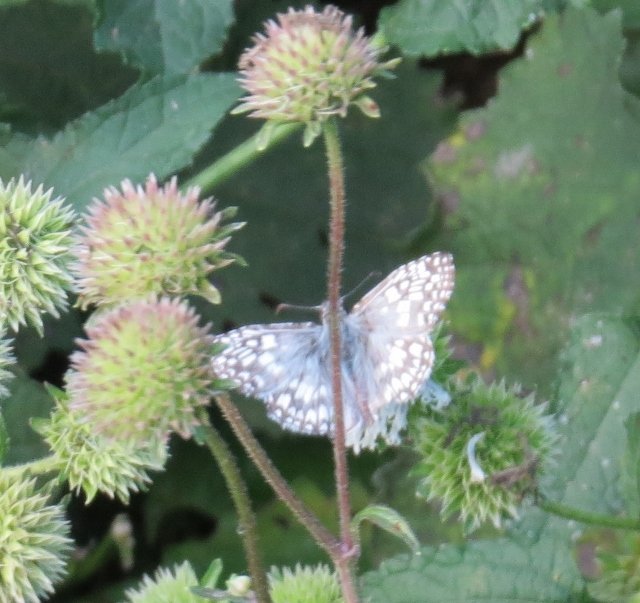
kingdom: Animalia
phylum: Arthropoda
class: Insecta
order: Lepidoptera
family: Hesperiidae
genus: Pyrgus
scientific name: Pyrgus oileus
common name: Tropical Checkered-Skipper
